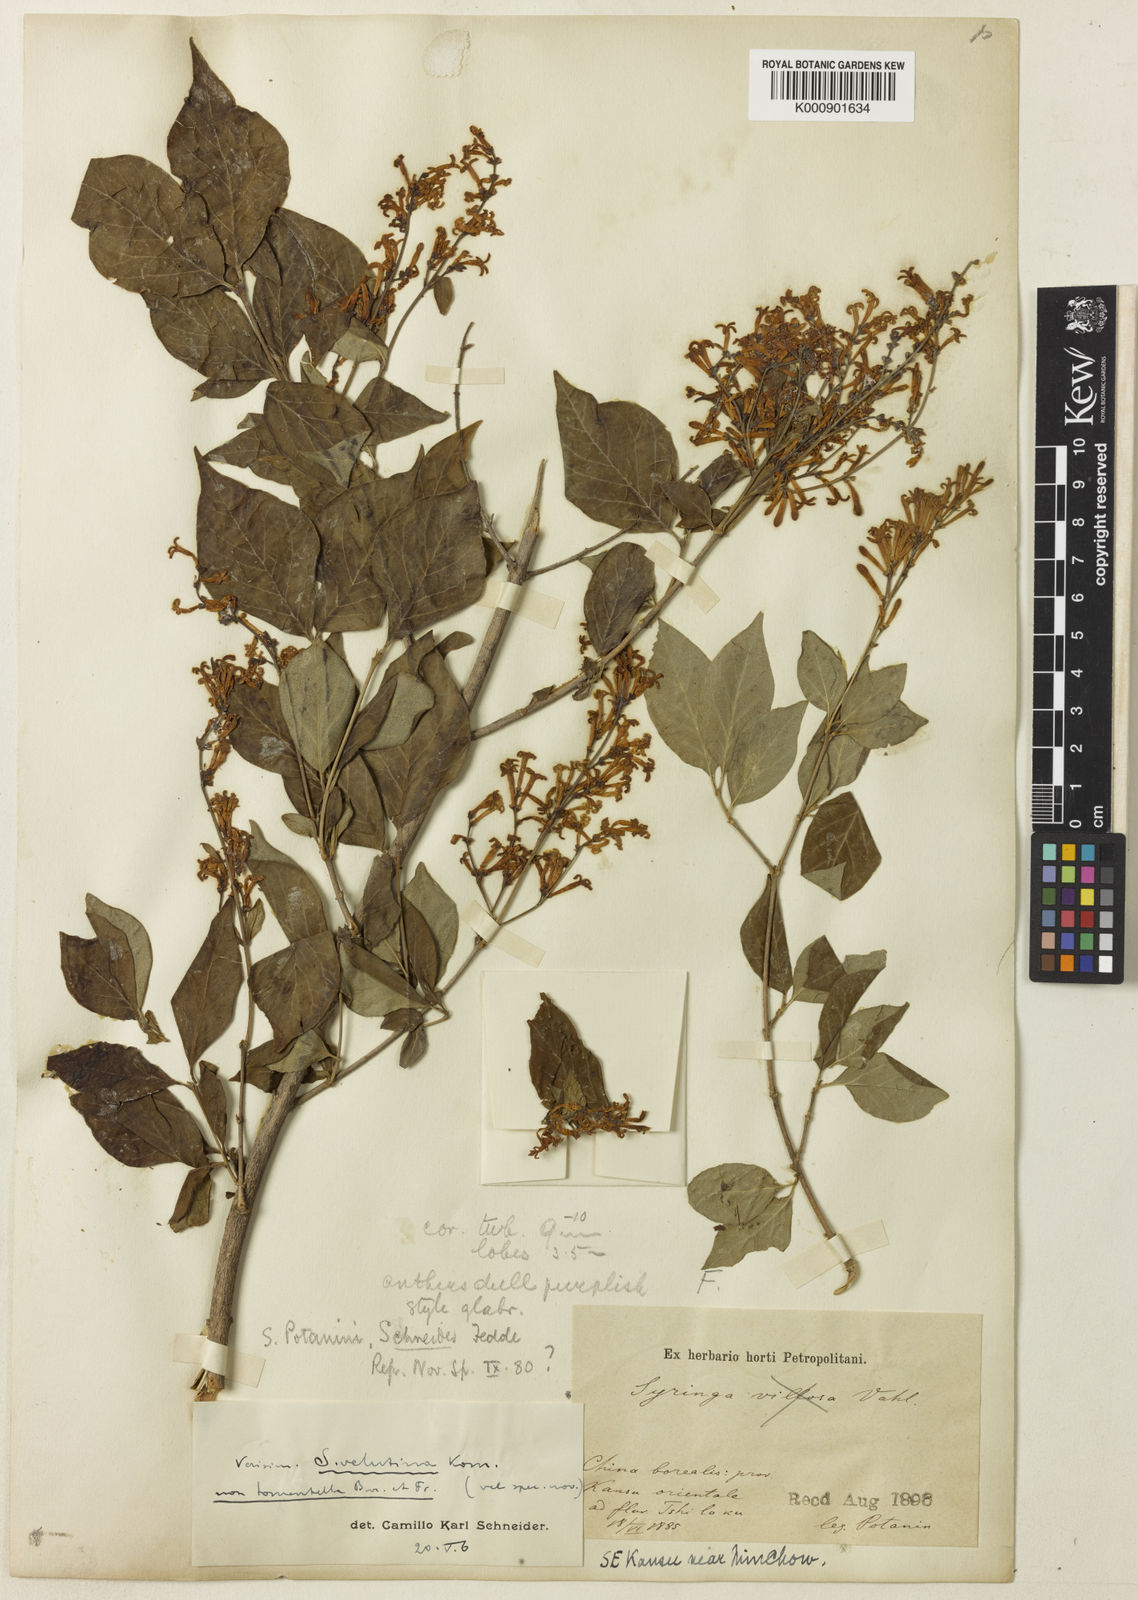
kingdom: Plantae
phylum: Tracheophyta
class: Magnoliopsida
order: Lamiales
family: Oleaceae
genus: Syringa
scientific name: Syringa pubescens
